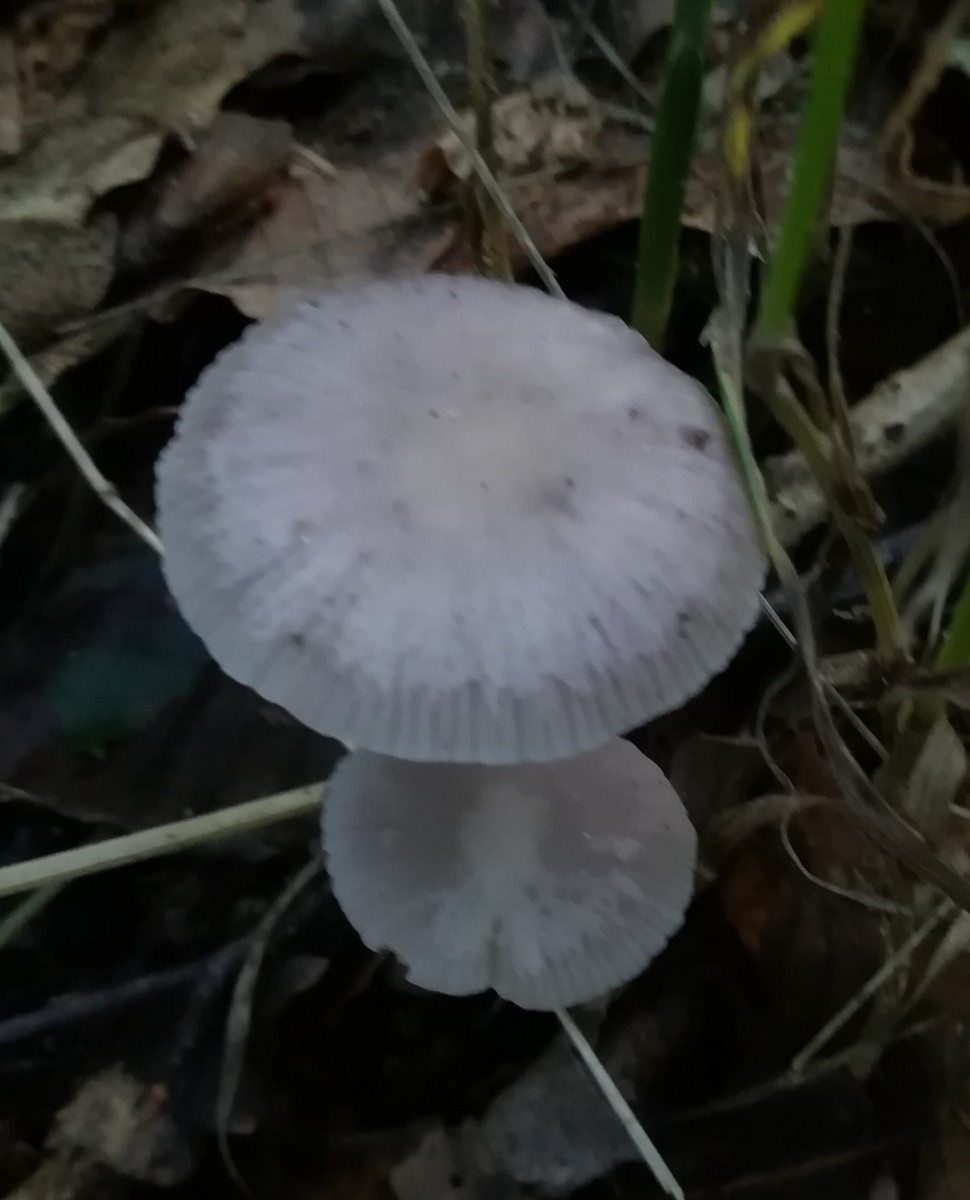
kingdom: Fungi
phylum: Basidiomycota
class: Agaricomycetes
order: Agaricales
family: Mycenaceae
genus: Mycena
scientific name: Mycena pelianthina
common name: mørkbladet huesvamp
